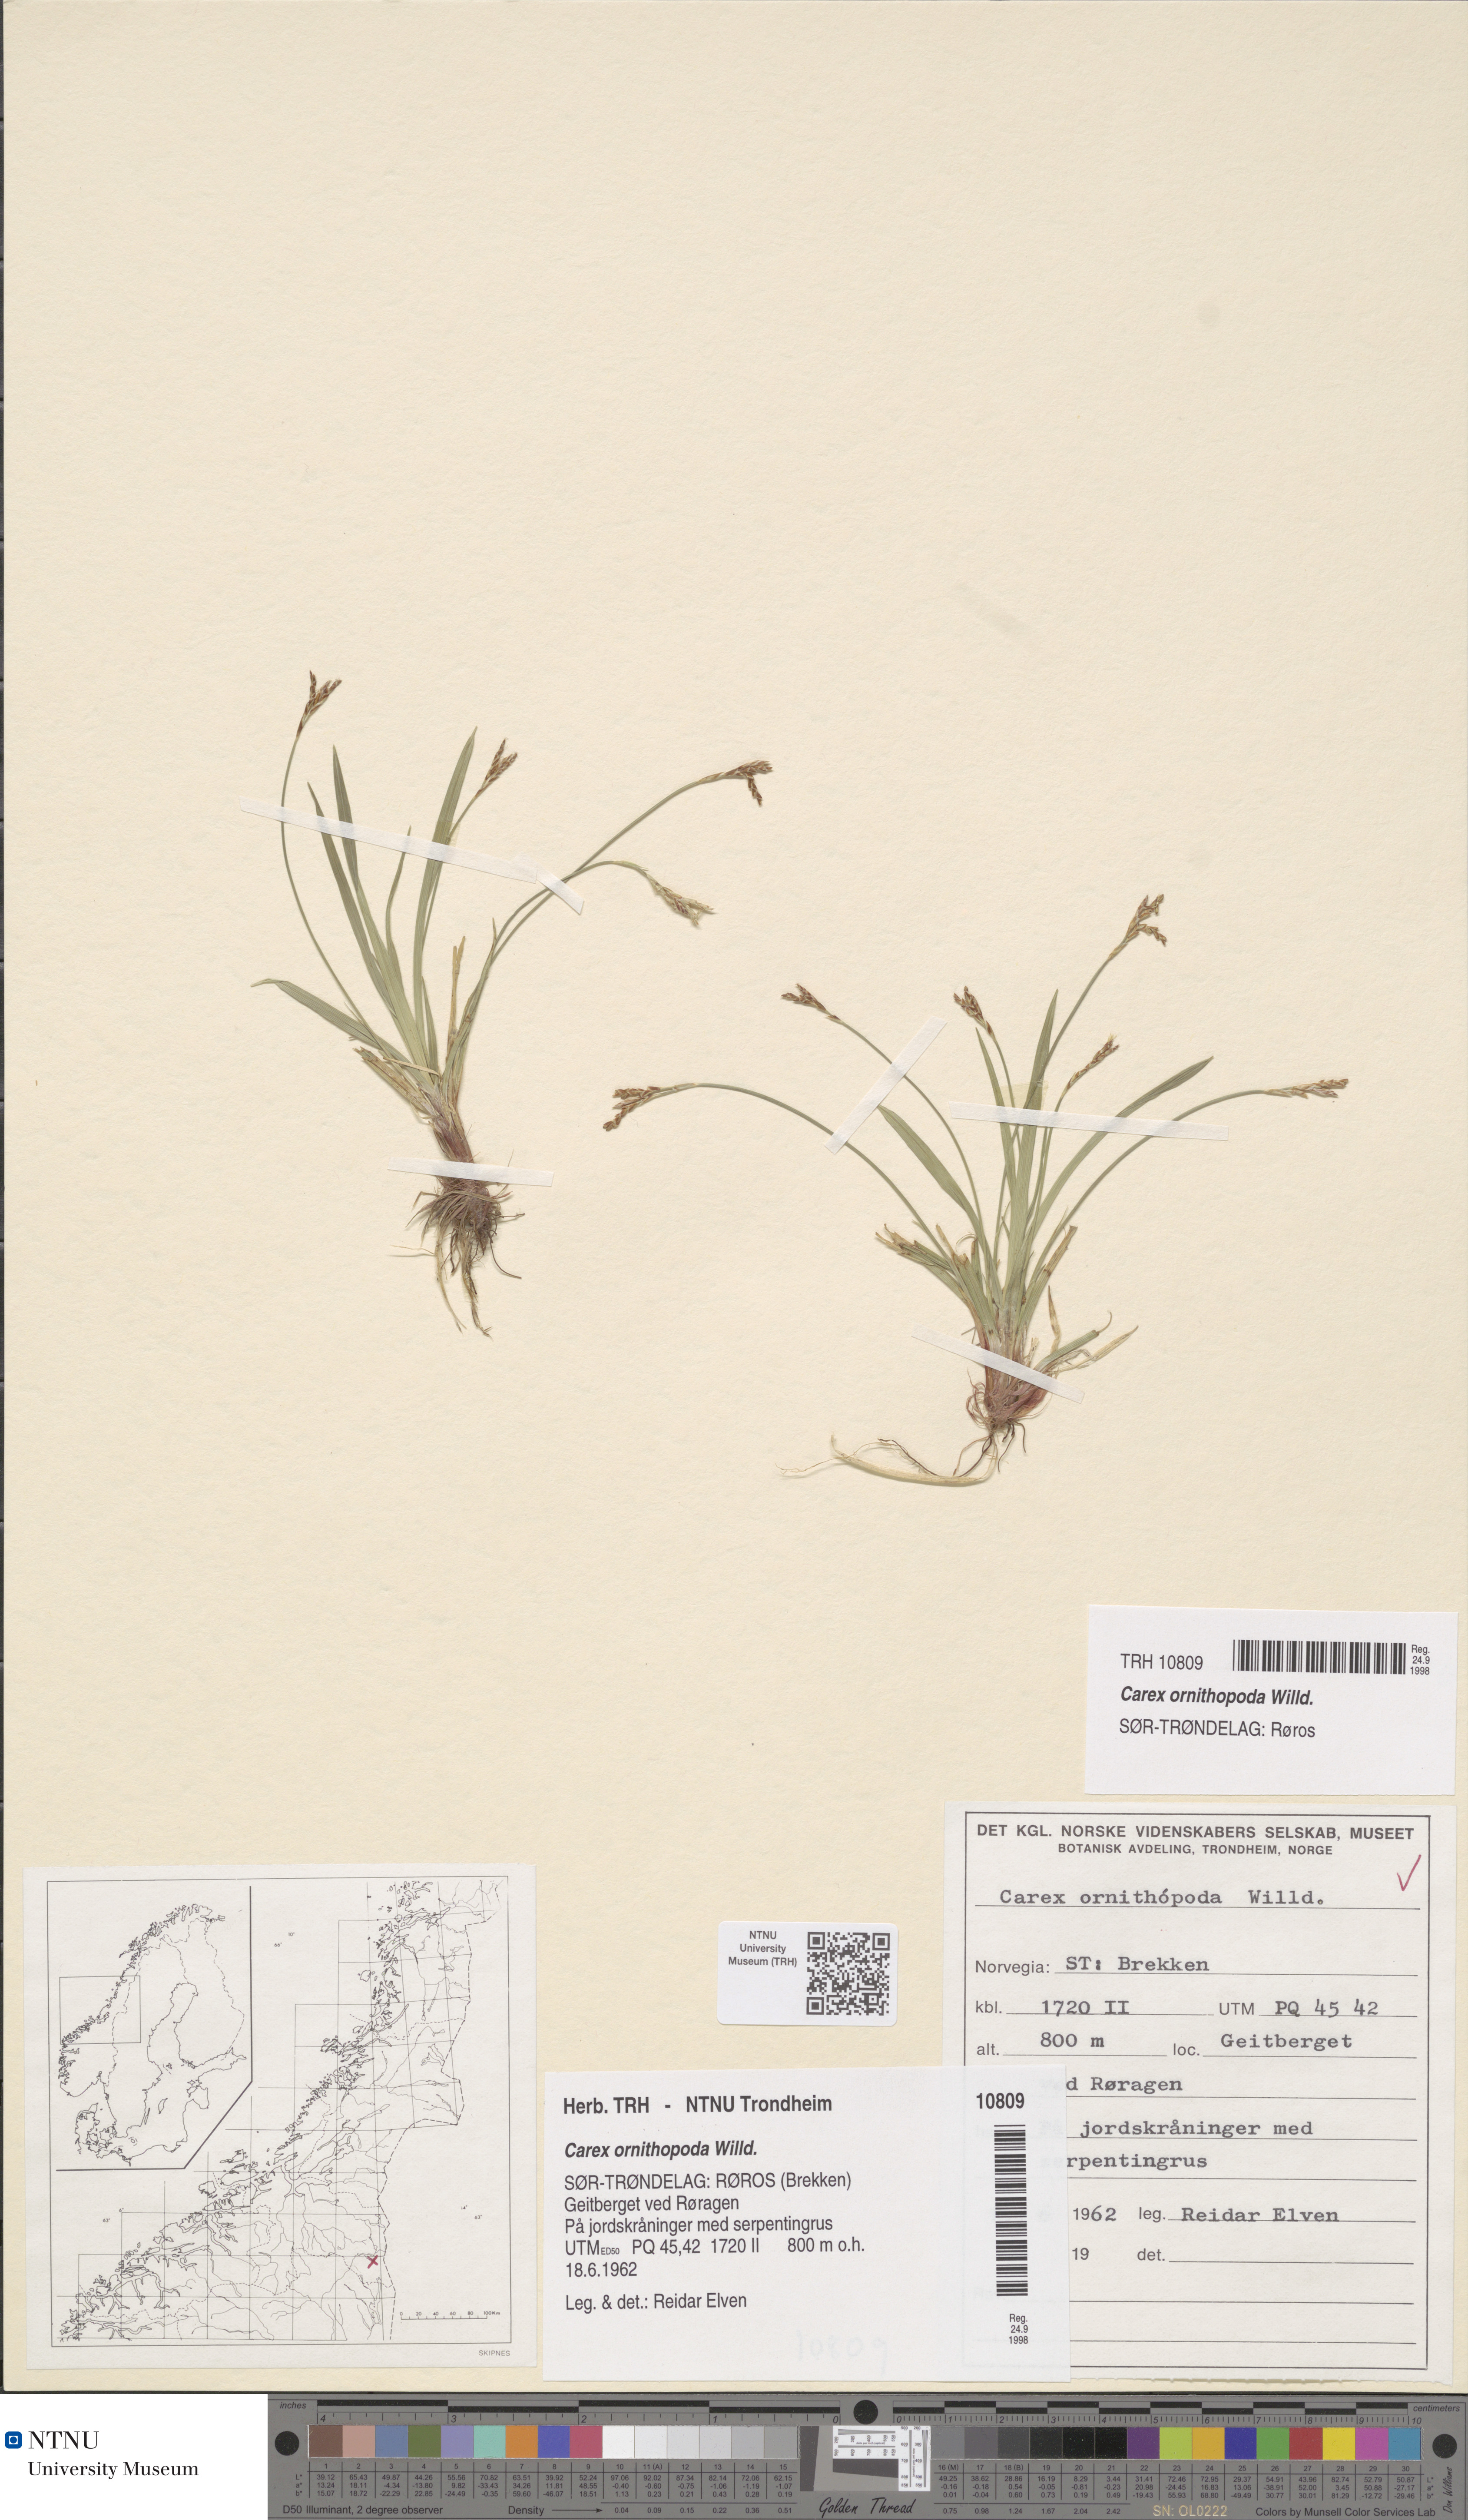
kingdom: Plantae
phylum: Tracheophyta
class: Liliopsida
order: Poales
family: Cyperaceae
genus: Carex
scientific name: Carex ornithopoda
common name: Bird's-foot sedge
